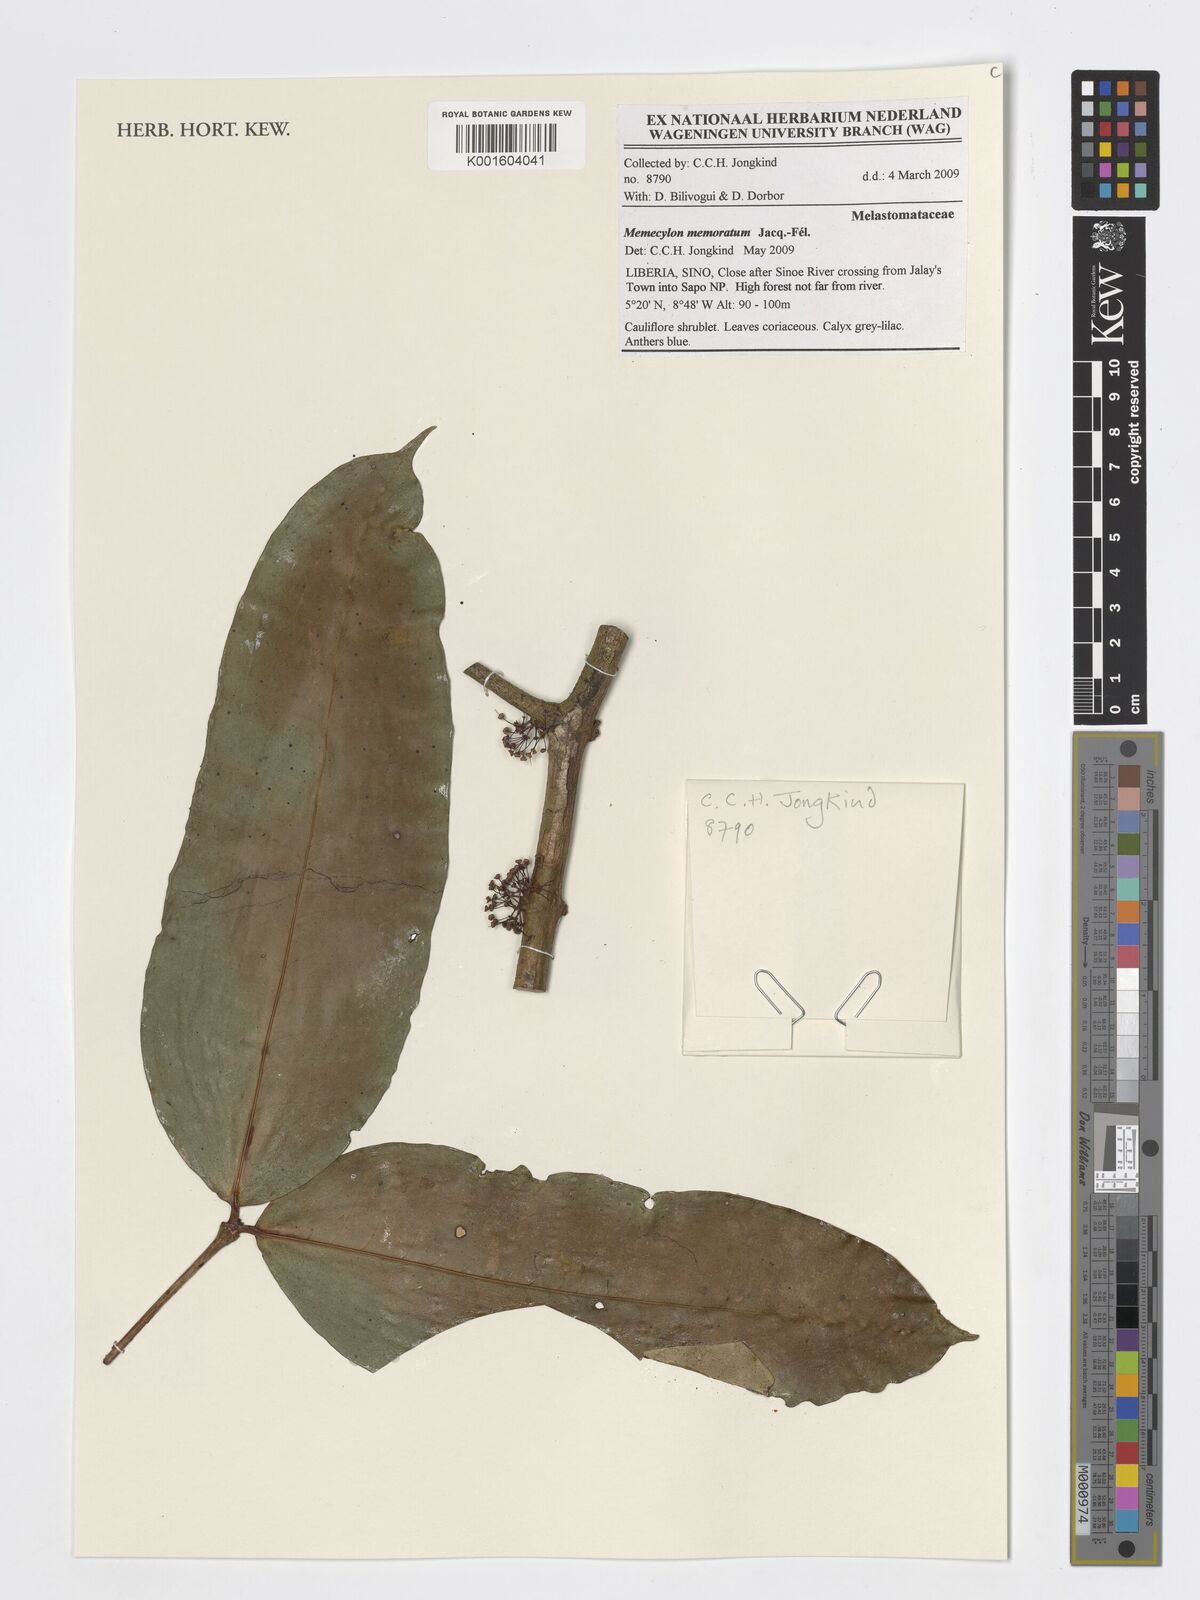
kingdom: Plantae
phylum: Tracheophyta
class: Magnoliopsida
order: Myrtales
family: Melastomataceae
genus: Memecylon
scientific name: Memecylon memoratum
